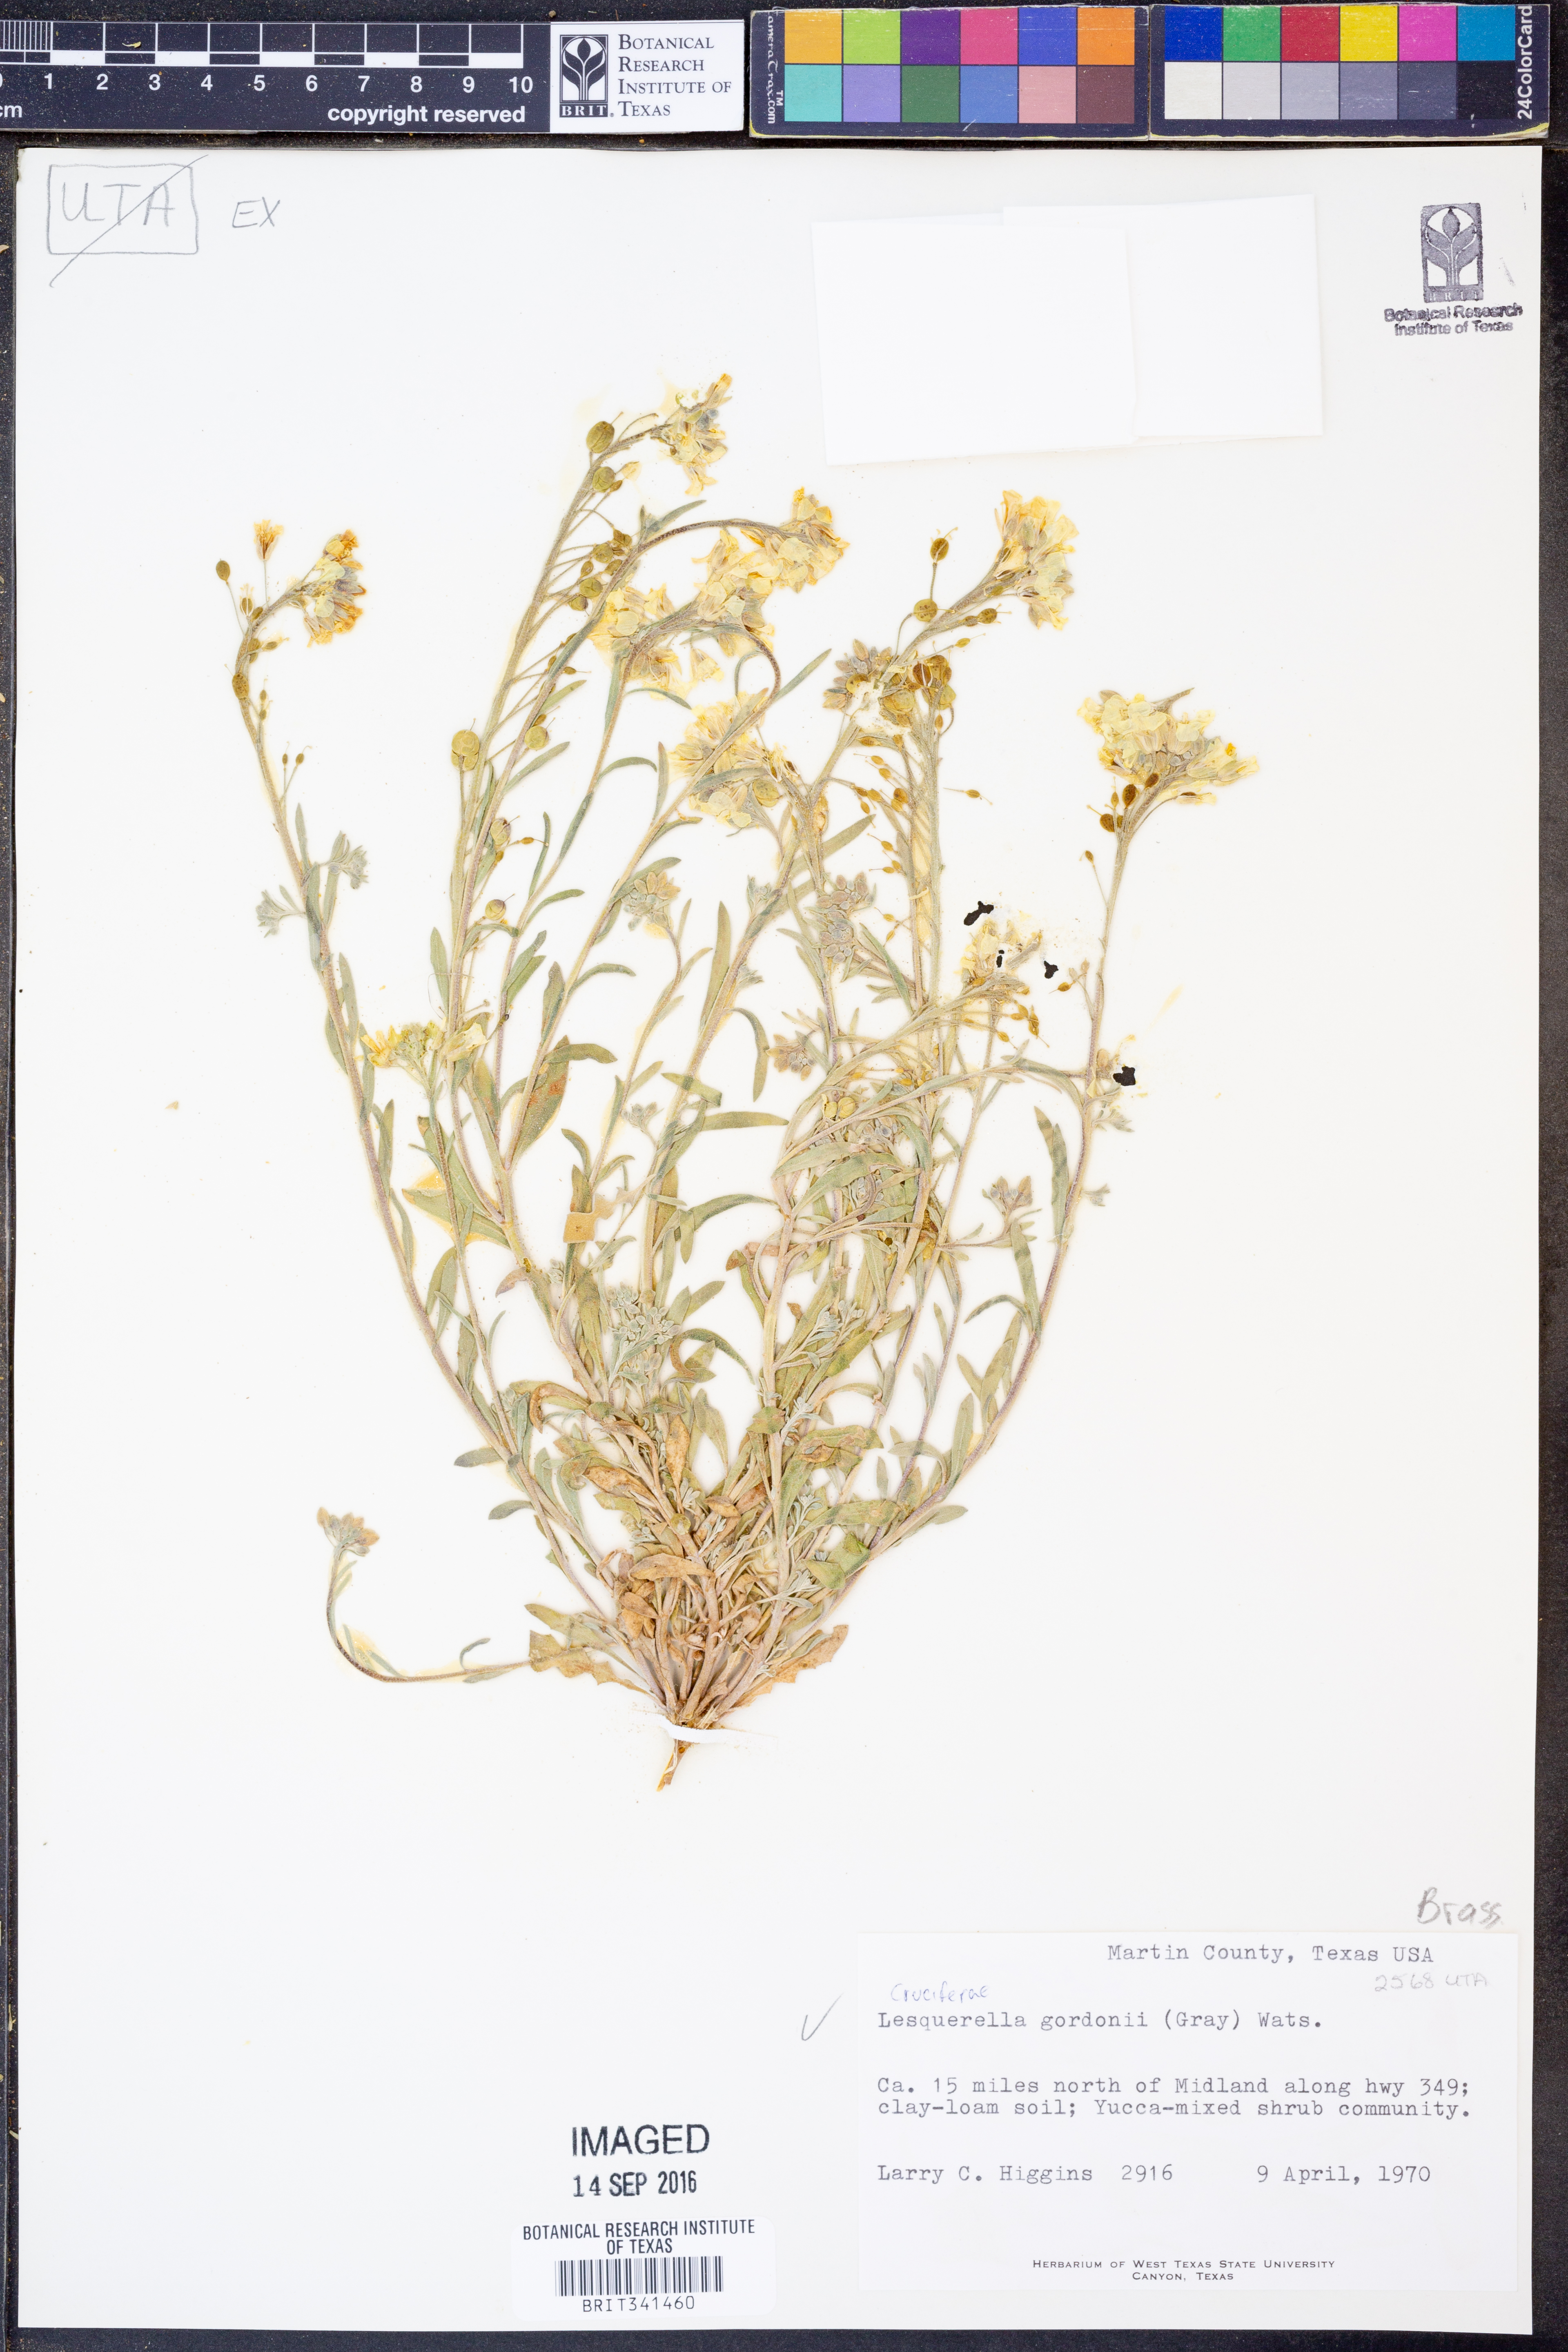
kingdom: Plantae
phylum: Tracheophyta
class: Magnoliopsida
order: Brassicales
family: Brassicaceae
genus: Physaria
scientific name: Physaria gordonii
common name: Gordon's bladderpod
